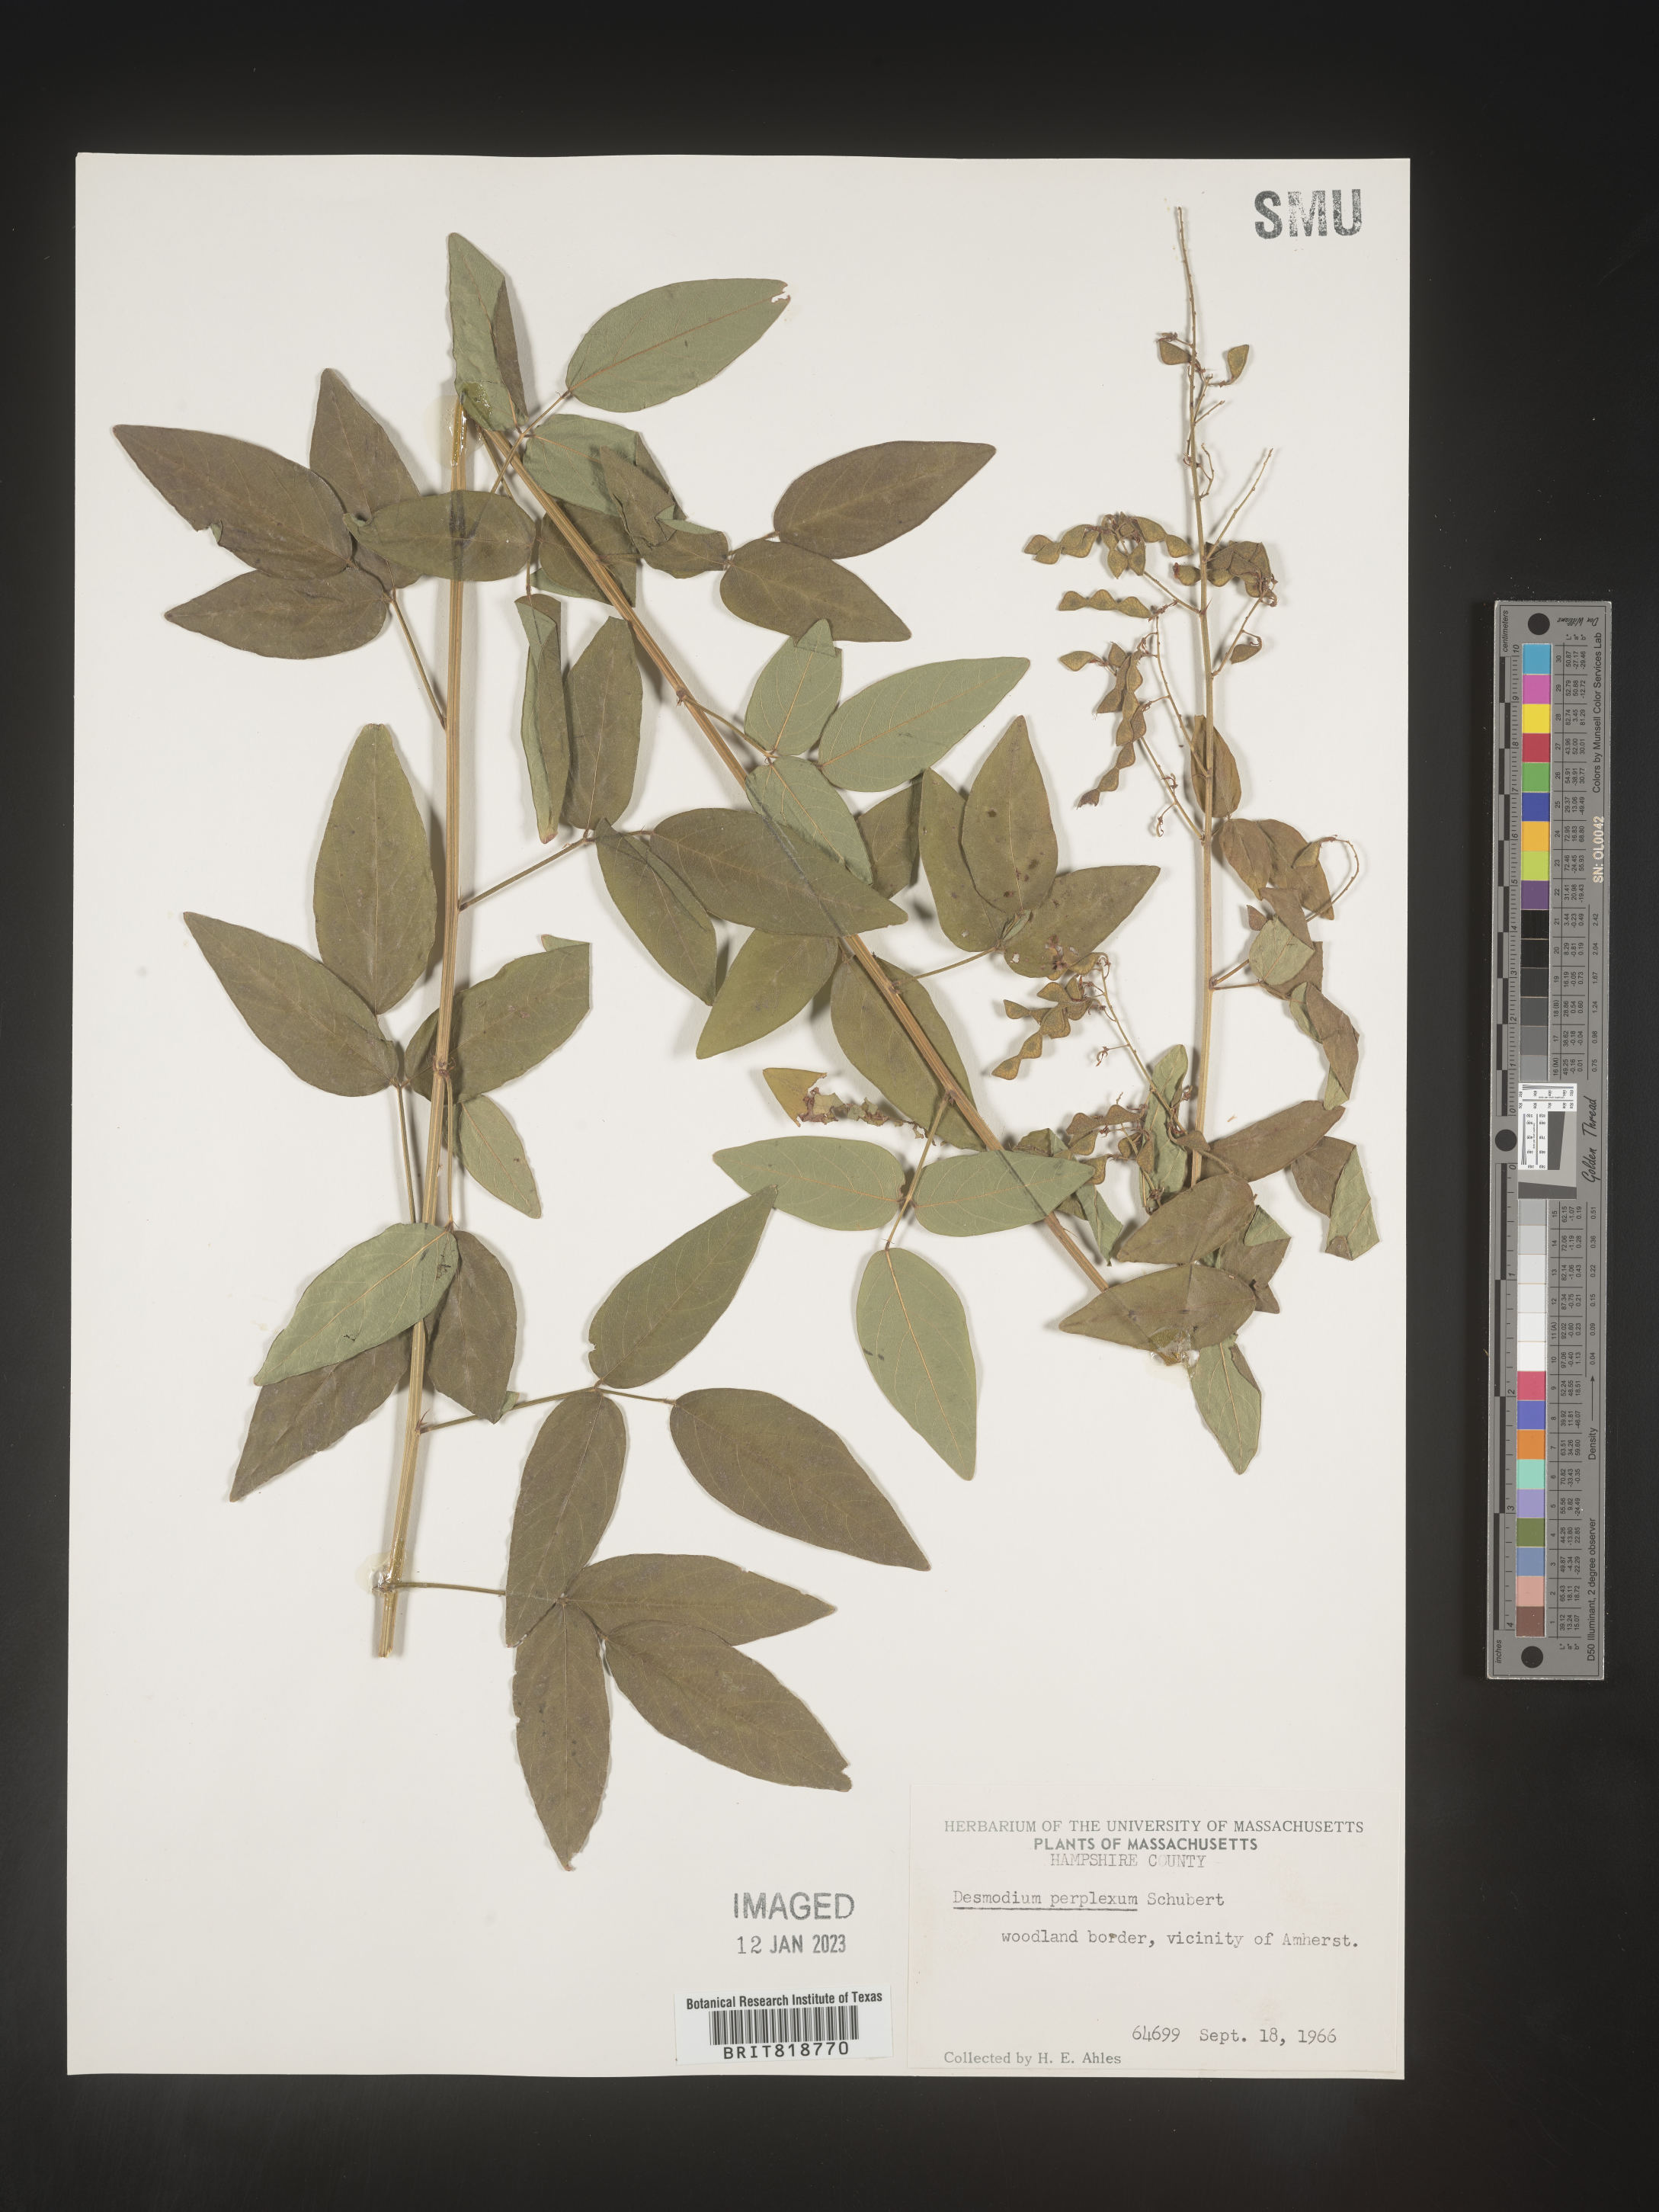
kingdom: Plantae
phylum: Tracheophyta
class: Magnoliopsida
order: Fabales
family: Fabaceae
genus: Desmodium
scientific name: Desmodium perplexum
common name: Perplexed tick trefoil
